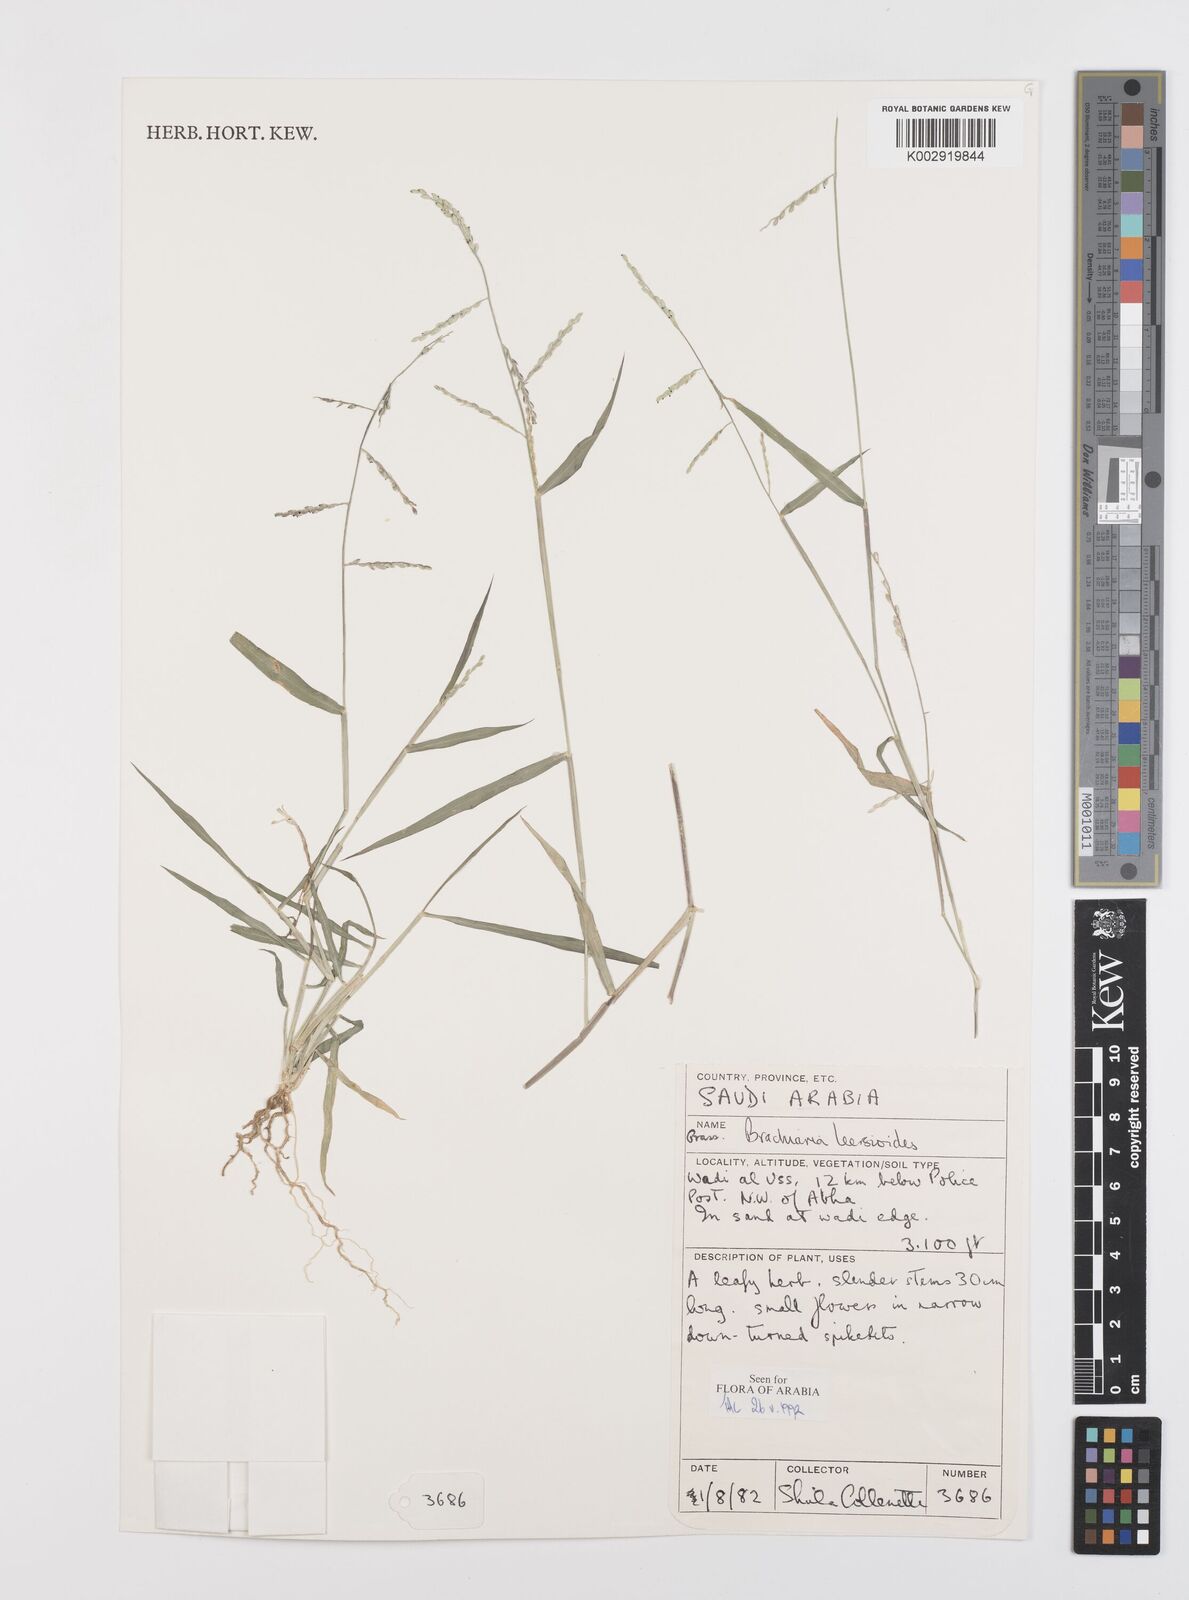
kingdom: Plantae
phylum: Tracheophyta
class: Liliopsida
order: Poales
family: Poaceae
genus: Urochloa
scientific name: Urochloa leersioides
